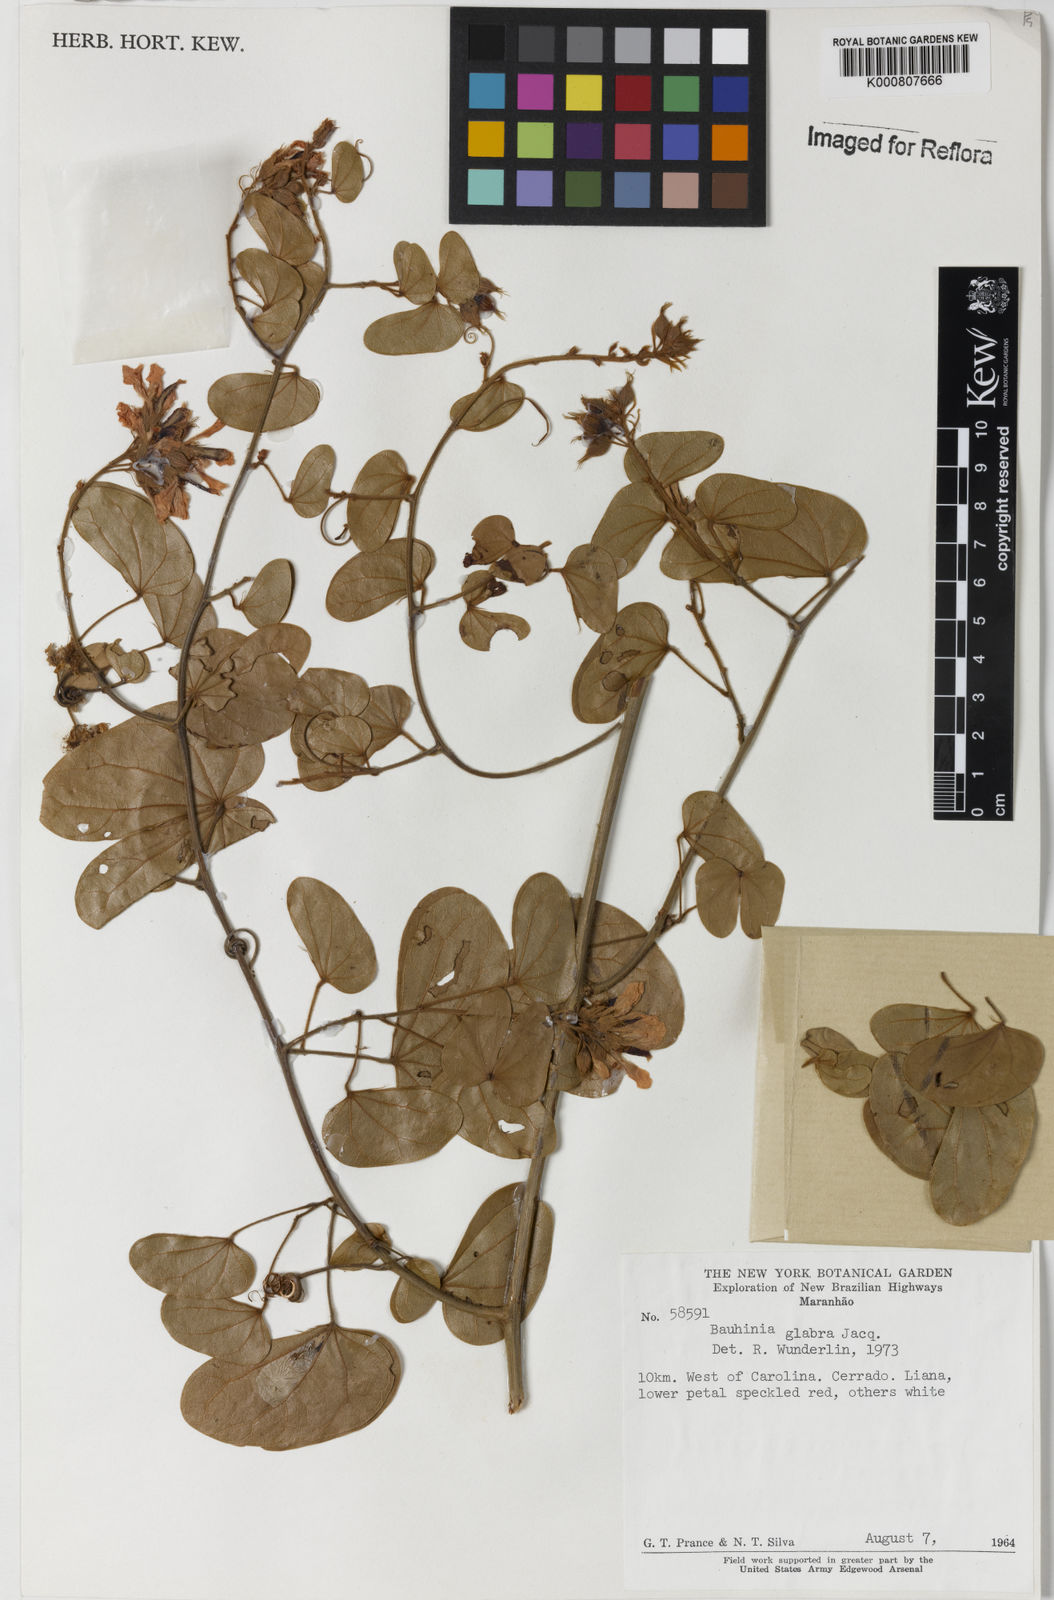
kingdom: Plantae
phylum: Tracheophyta
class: Magnoliopsida
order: Fabales
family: Fabaceae
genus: Schnella
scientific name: Schnella glabra
